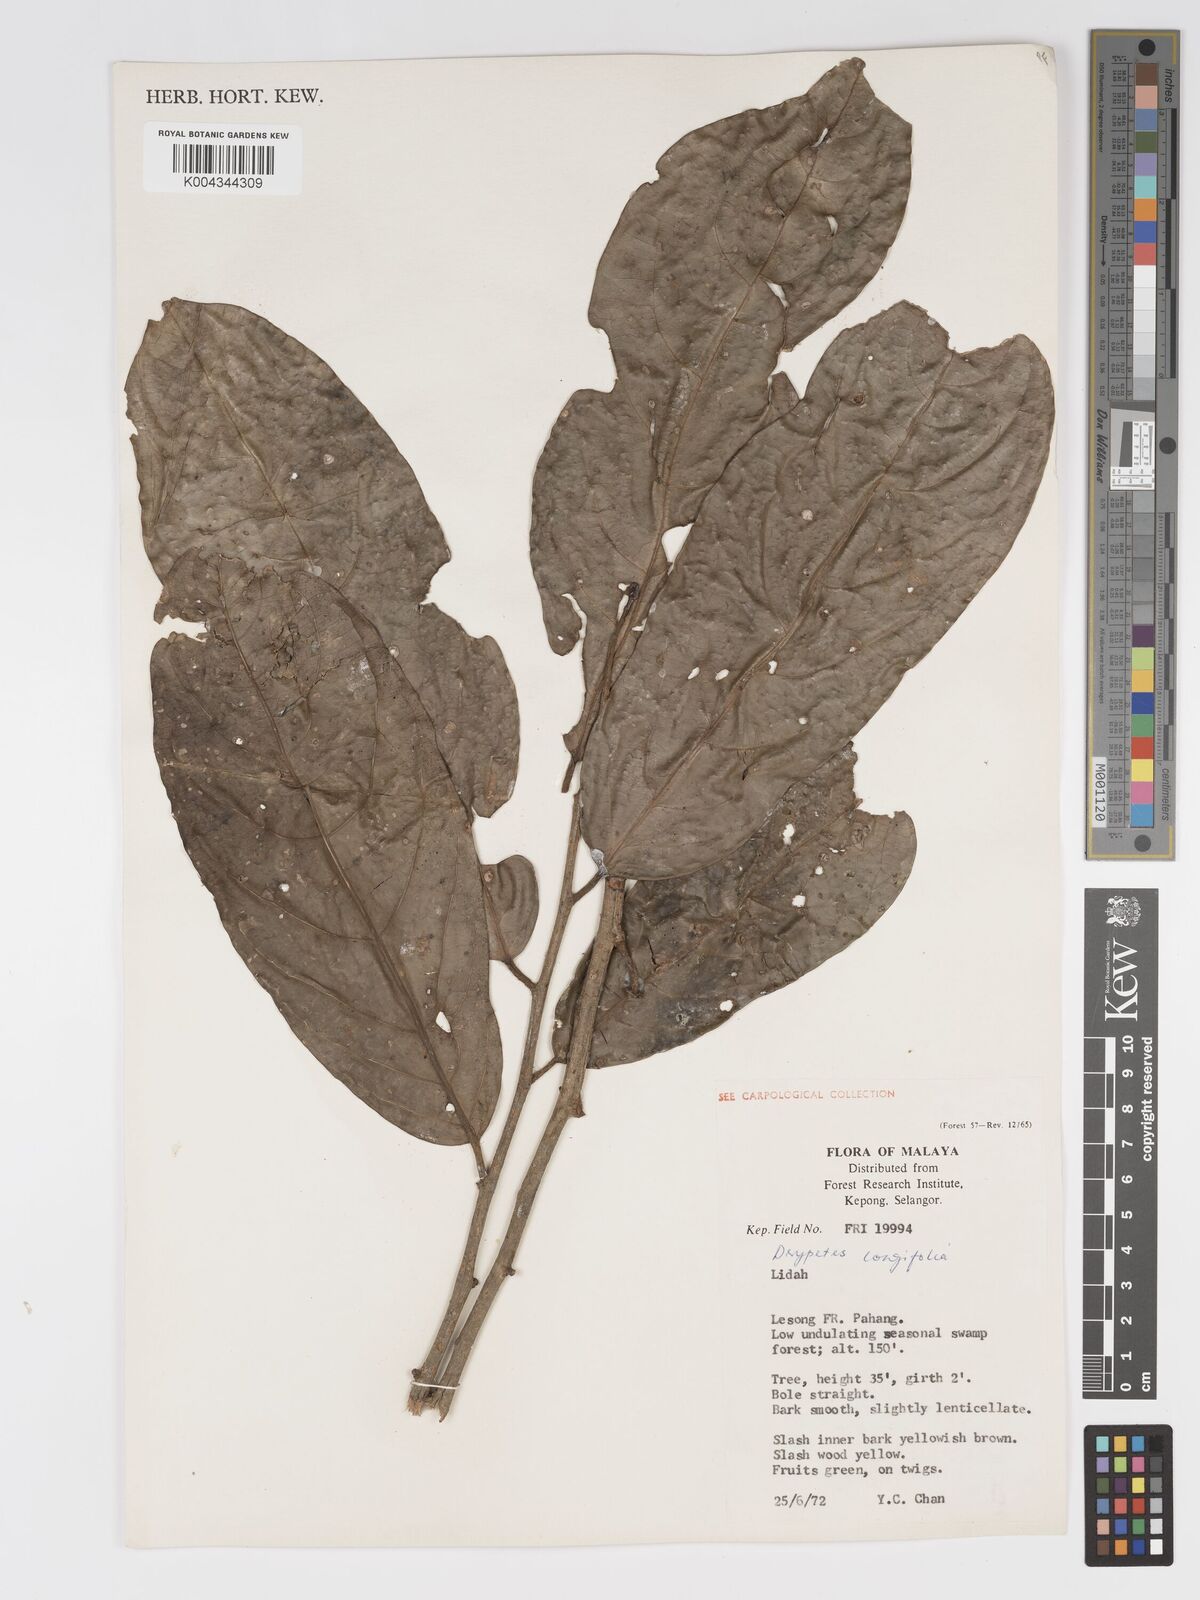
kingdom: Plantae
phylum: Tracheophyta
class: Magnoliopsida
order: Malpighiales
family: Putranjivaceae
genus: Drypetes
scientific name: Drypetes longifolia
